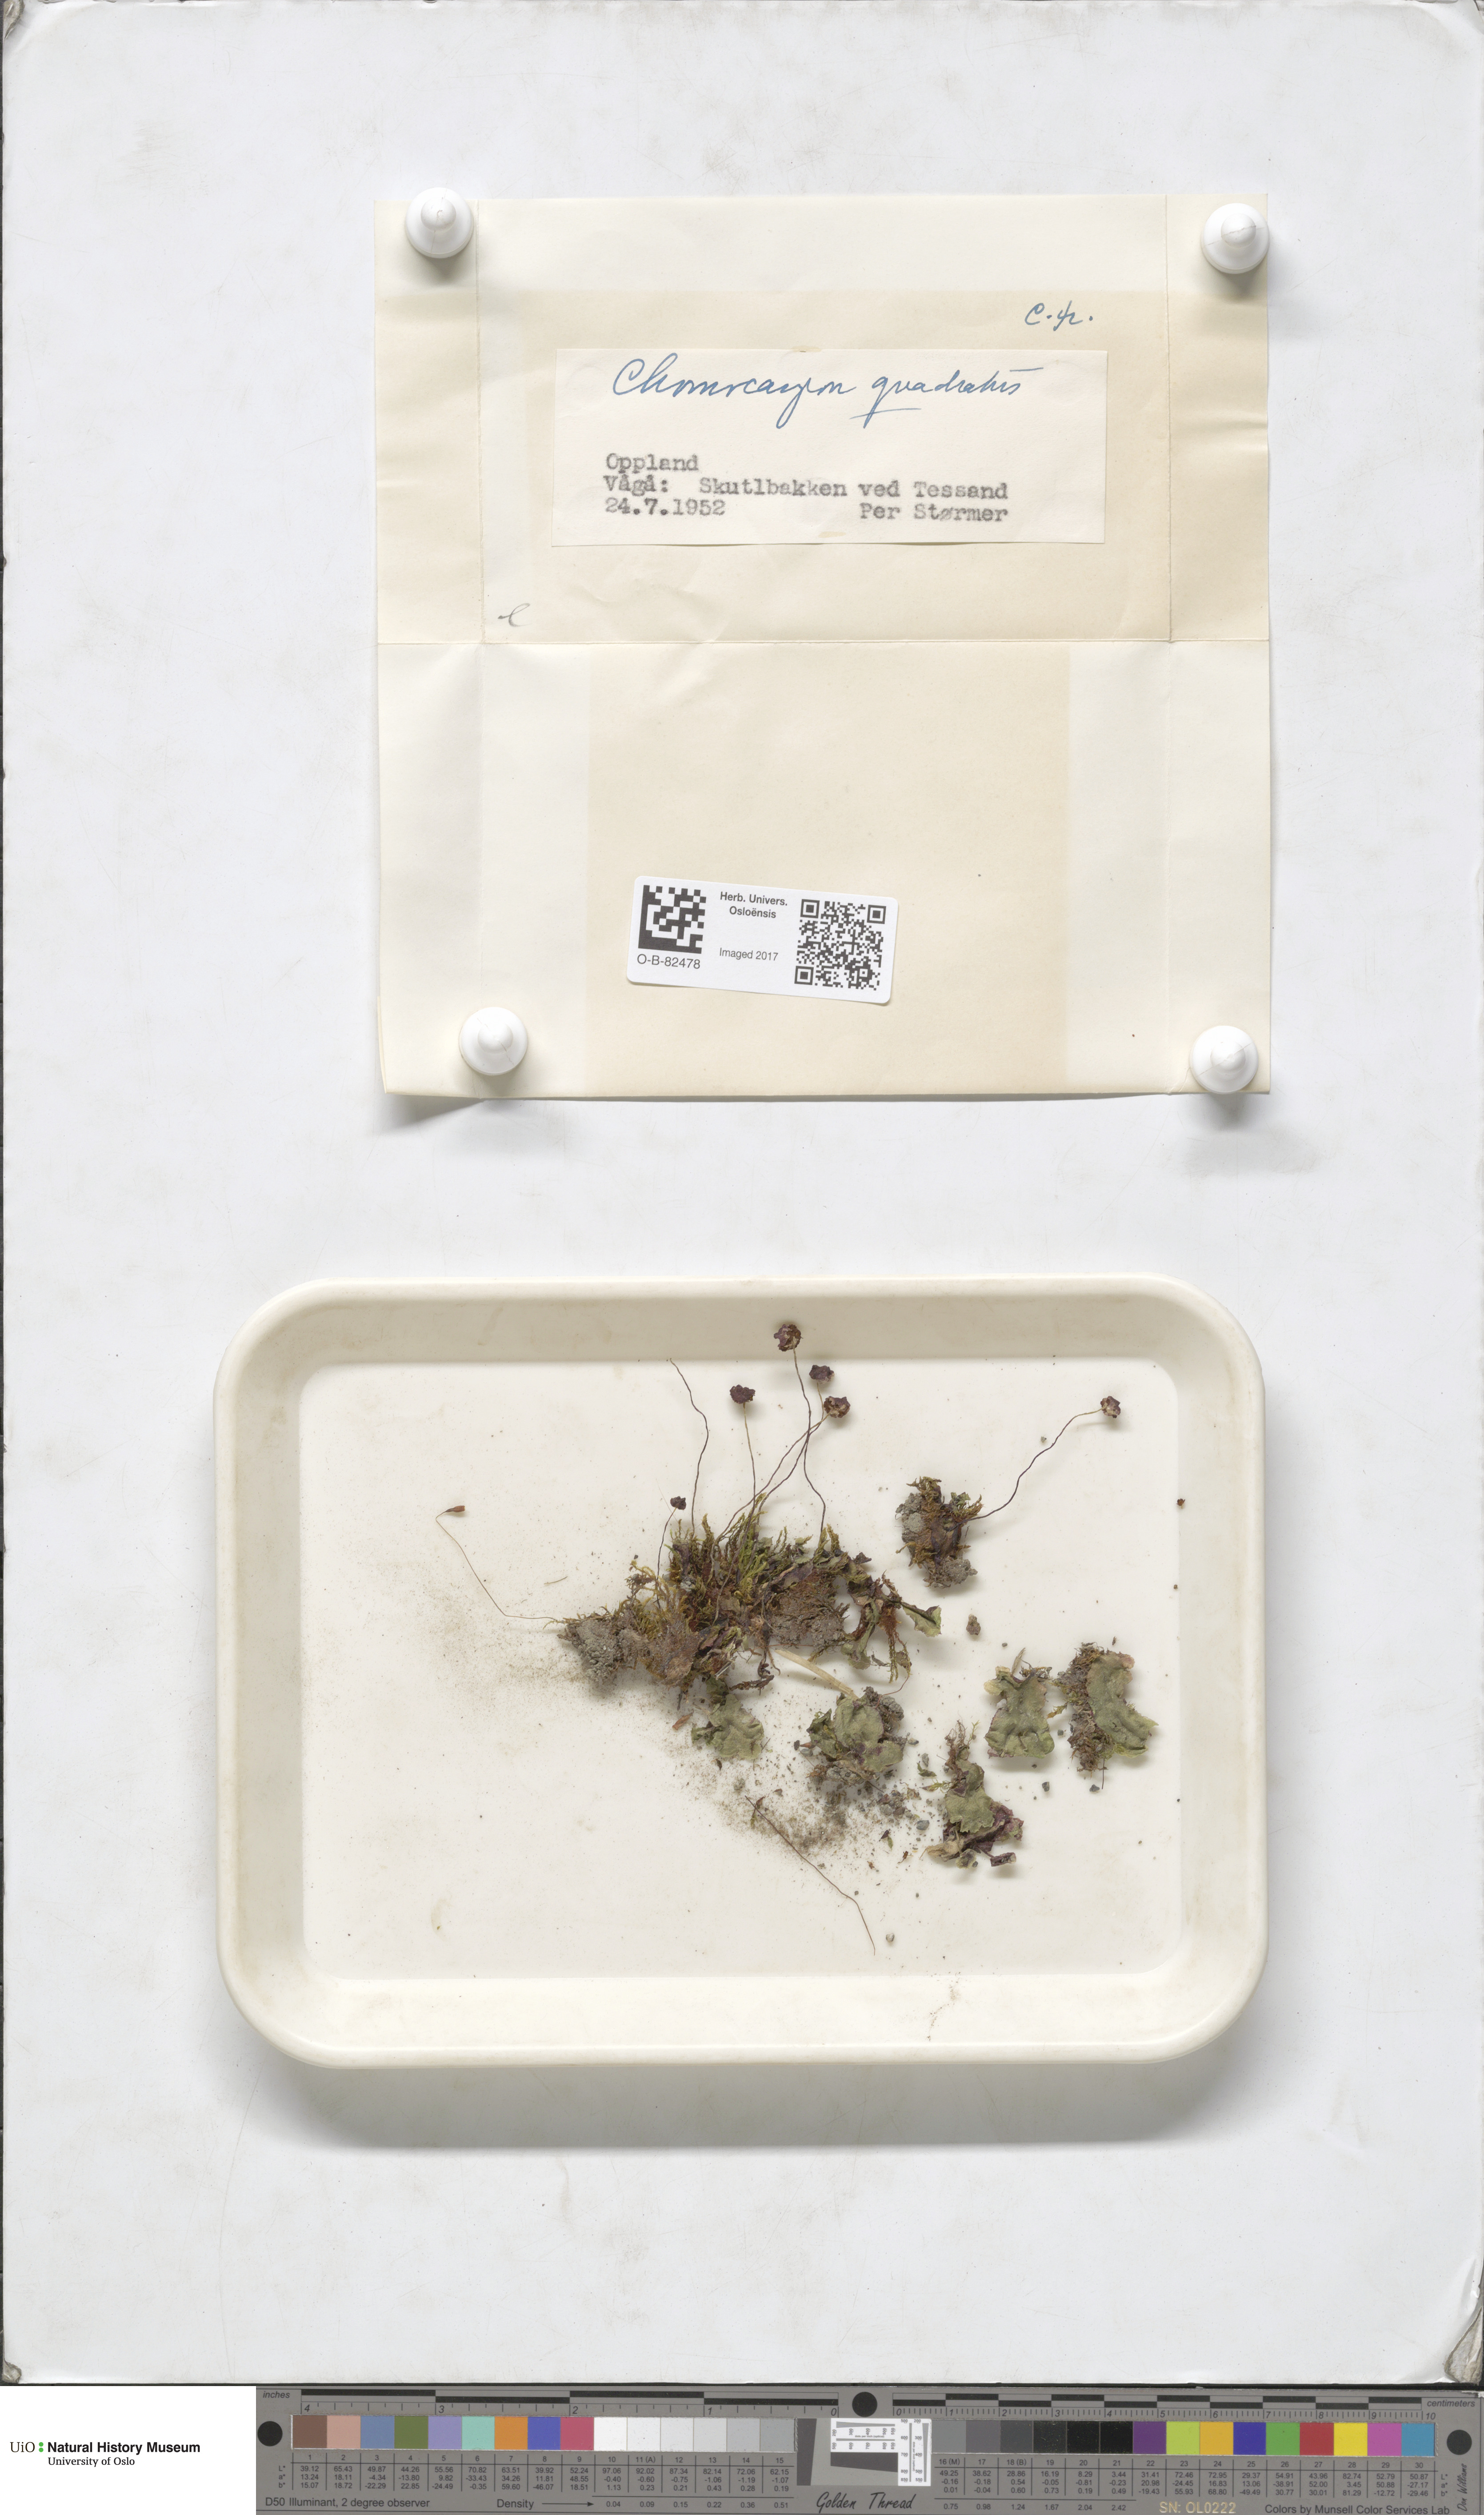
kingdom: Plantae
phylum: Marchantiophyta
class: Marchantiopsida
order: Marchantiales
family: Marchantiaceae
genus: Marchantia
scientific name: Marchantia quadrata
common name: Narrow mushroom-headed liverwort
